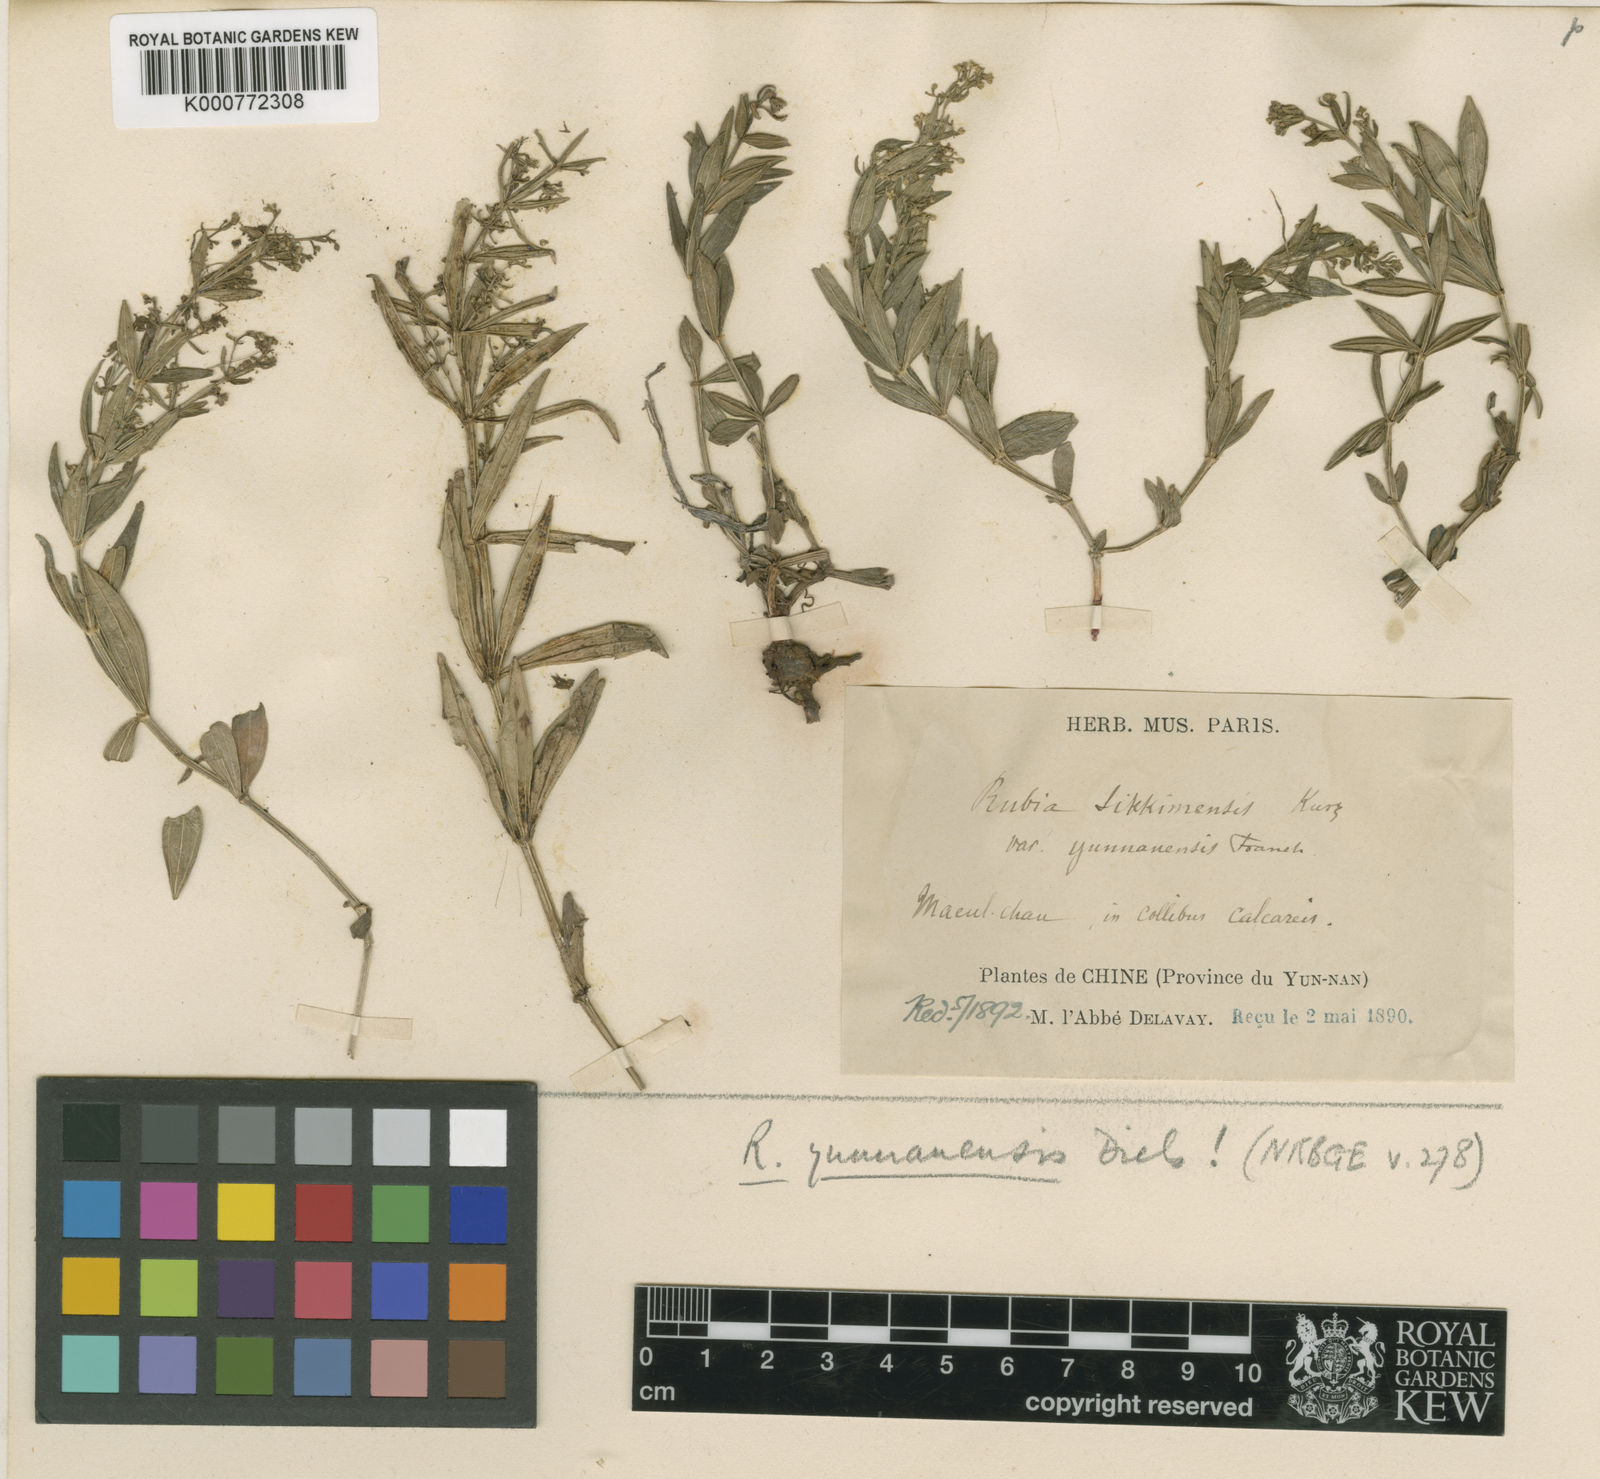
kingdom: Plantae
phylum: Tracheophyta
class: Magnoliopsida
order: Gentianales
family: Rubiaceae
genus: Rubia
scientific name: Rubia yunnanensis
